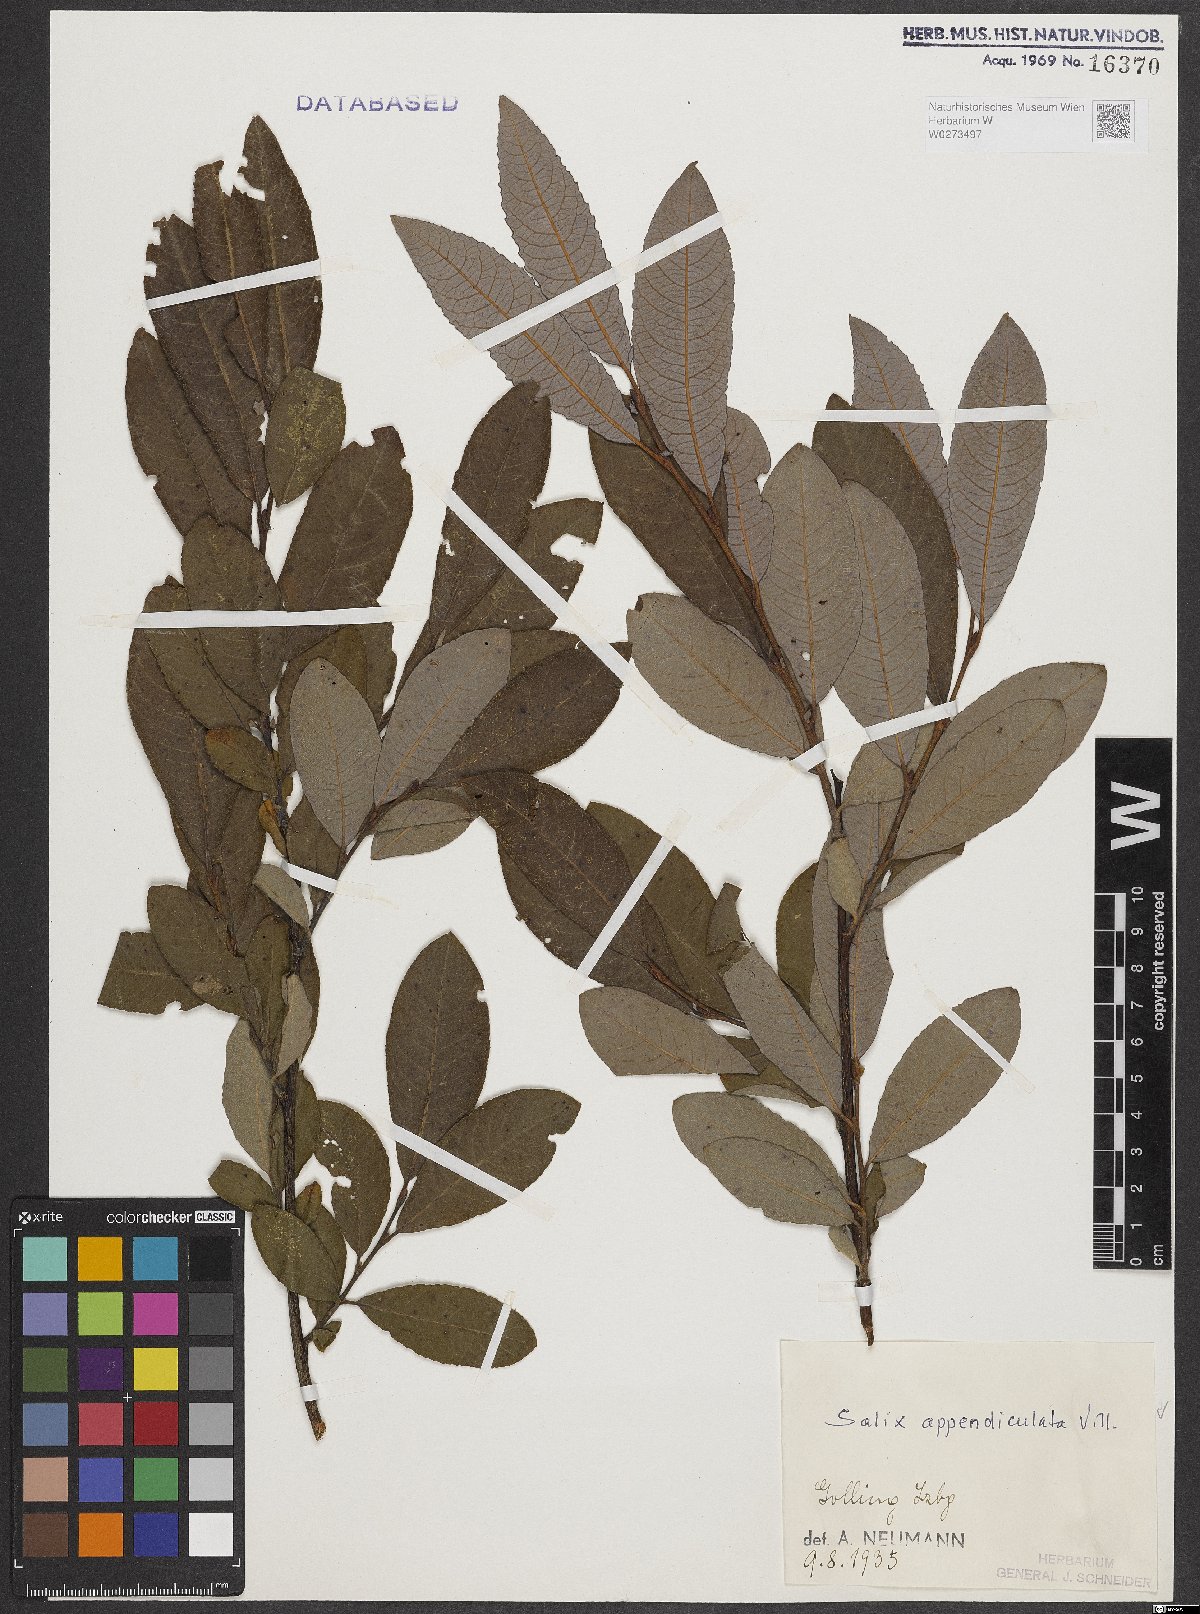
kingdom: Plantae
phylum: Tracheophyta
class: Magnoliopsida
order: Malpighiales
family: Salicaceae
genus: Salix
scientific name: Salix appendiculata
